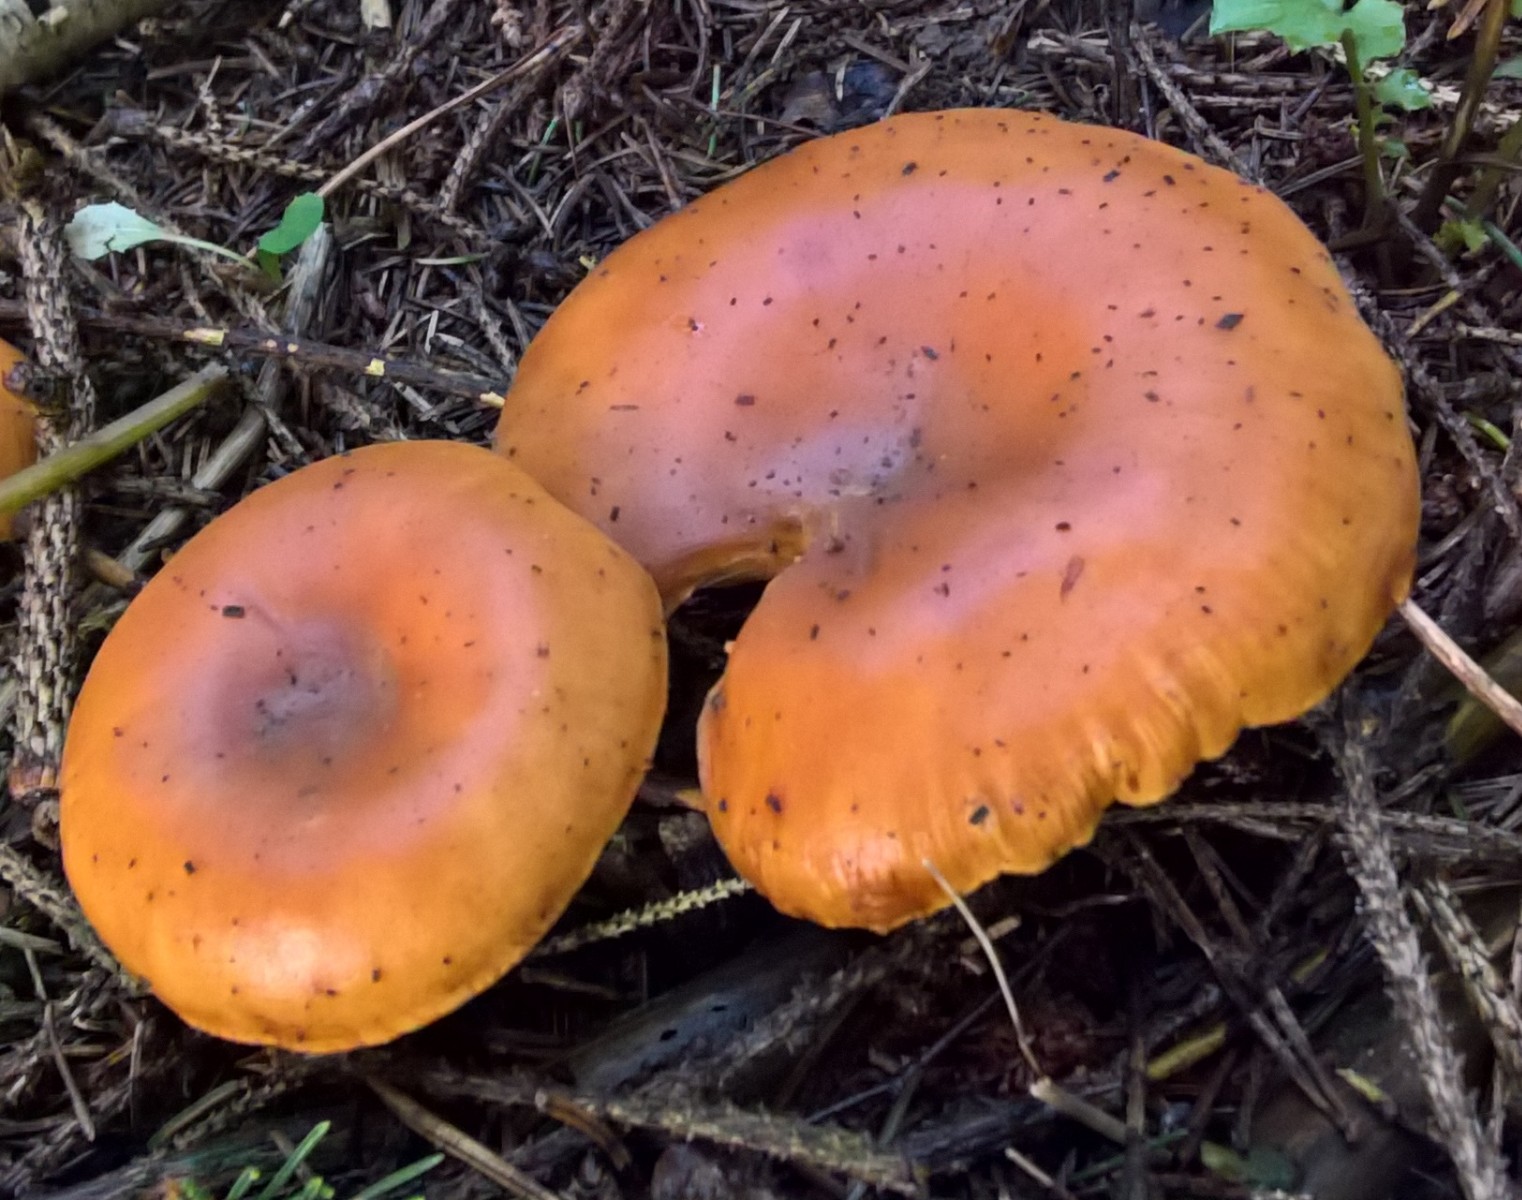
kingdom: Fungi
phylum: Basidiomycota
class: Agaricomycetes
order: Agaricales
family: Tricholomataceae
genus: Paralepista
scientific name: Paralepista flaccida
